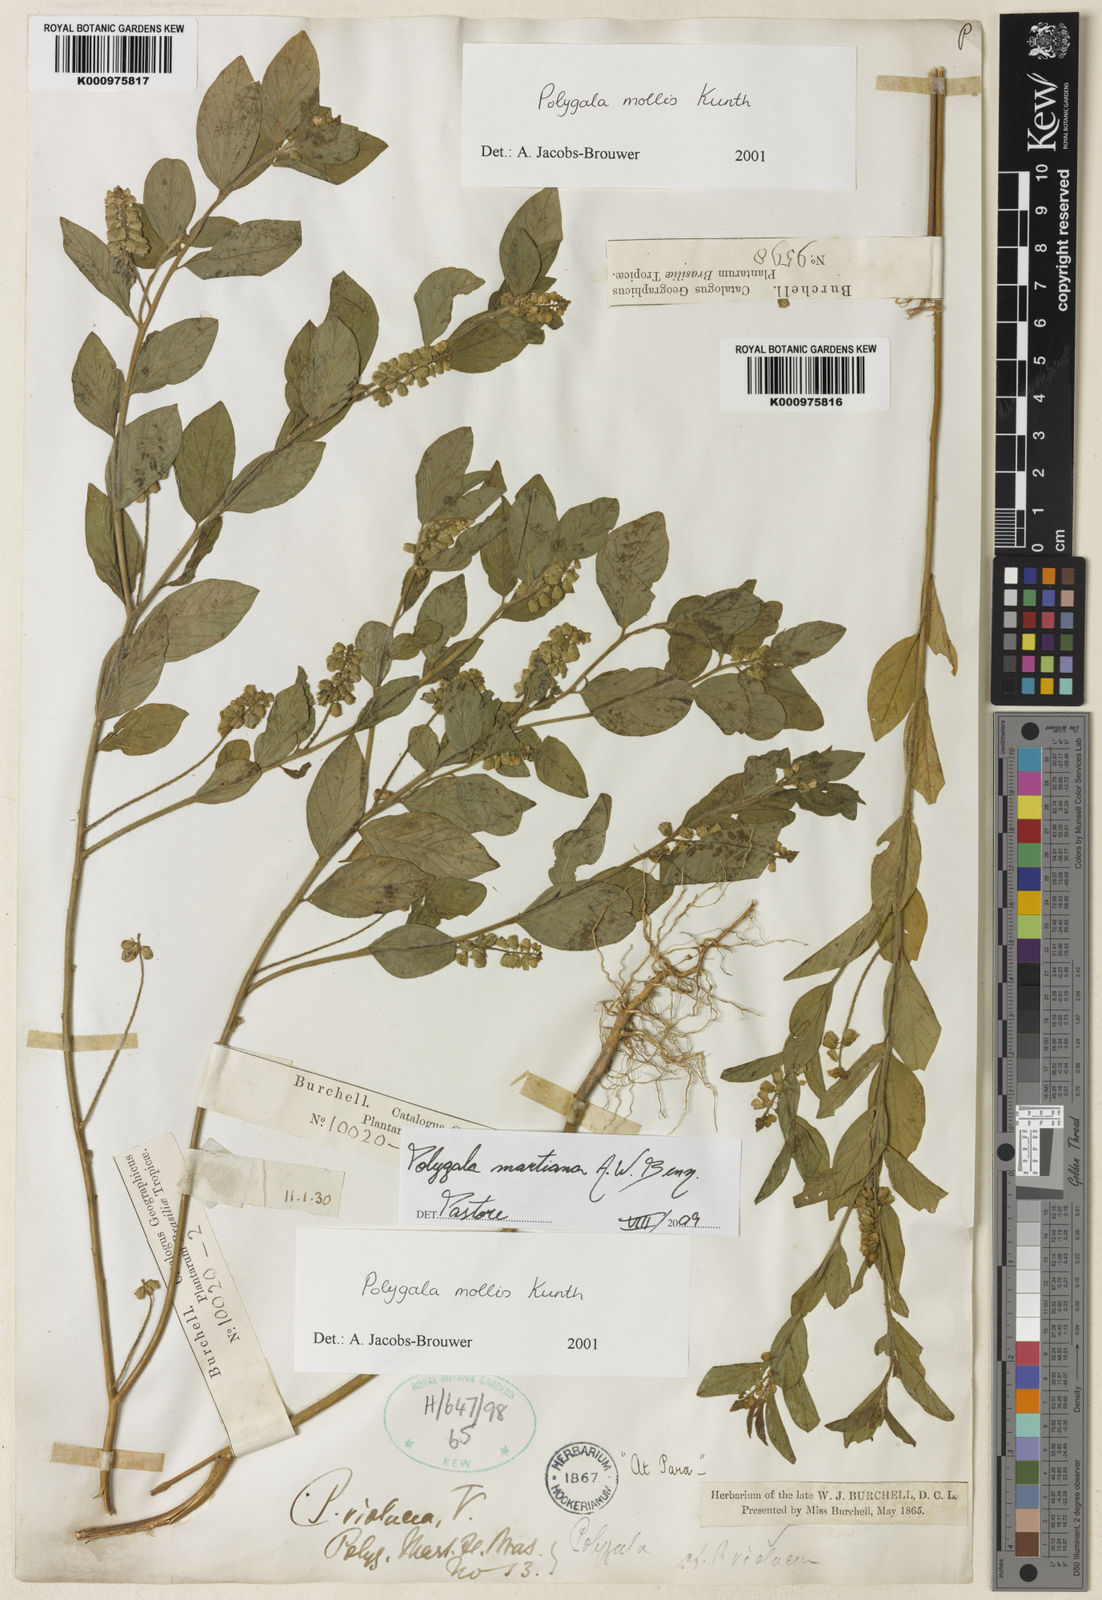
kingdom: Plantae
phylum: Tracheophyta
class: Magnoliopsida
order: Fabales
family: Polygalaceae
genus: Asemeia
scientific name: Asemeia martiana
